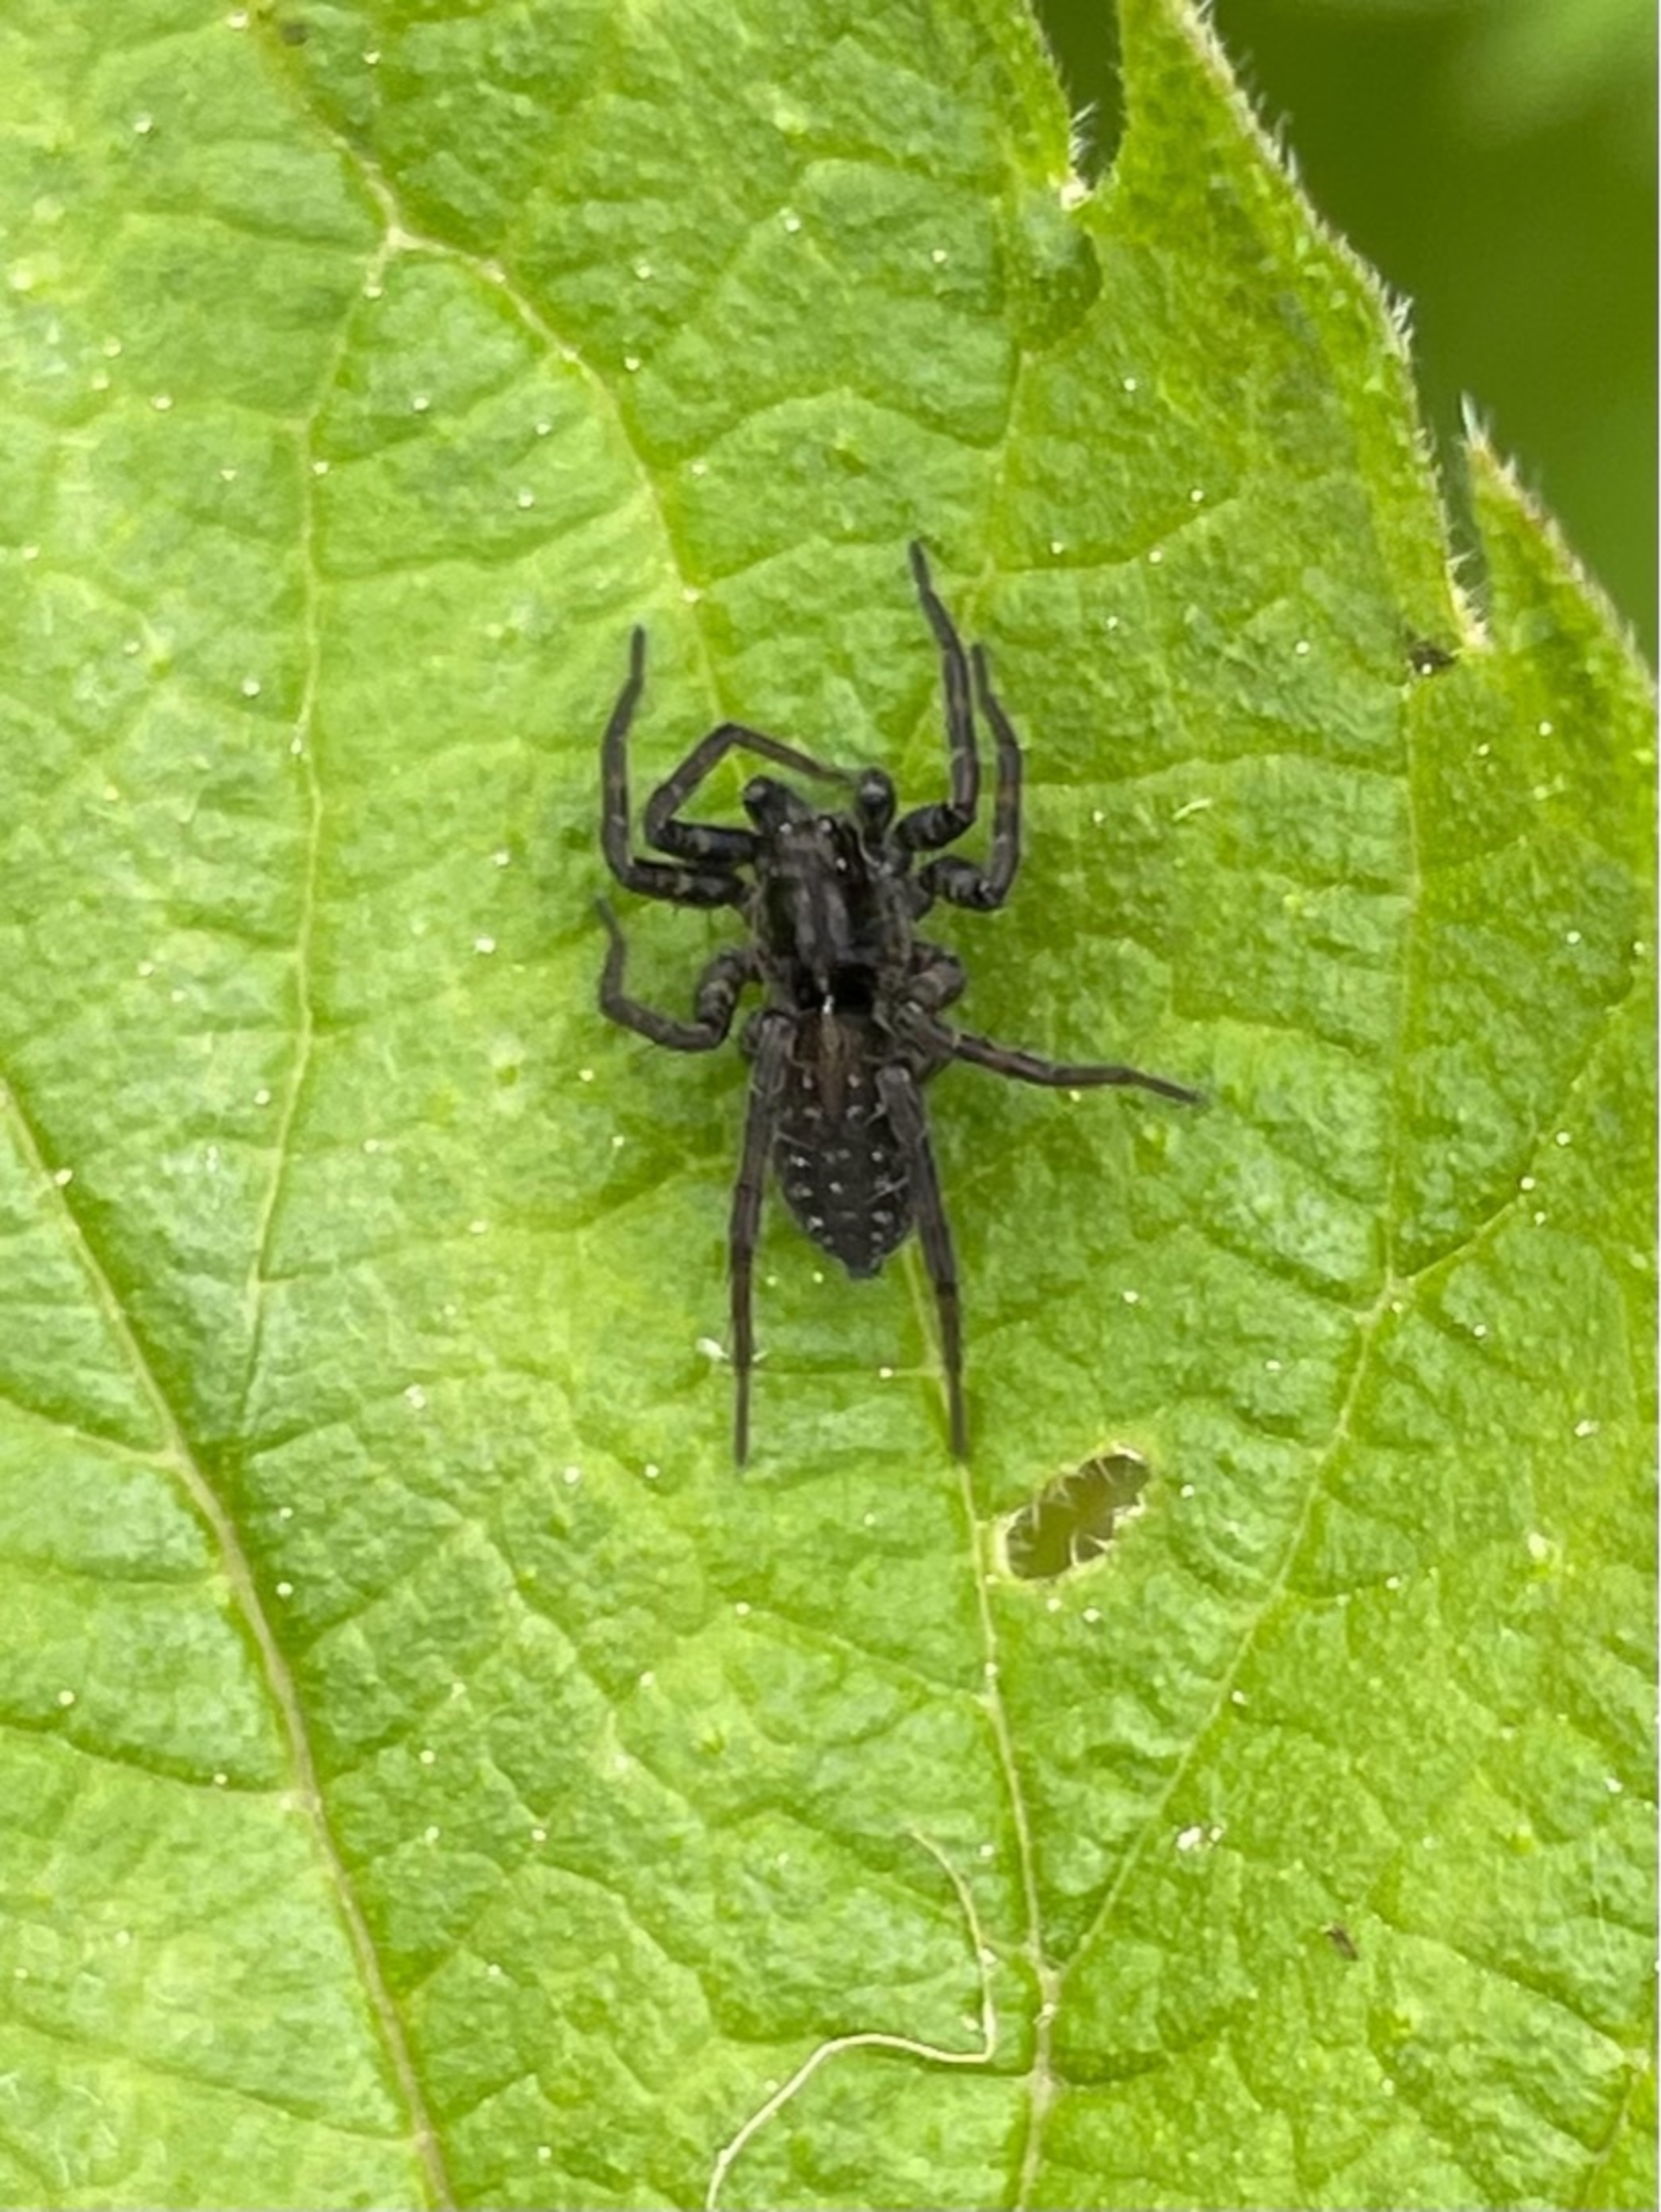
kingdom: Animalia
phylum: Arthropoda
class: Arachnida
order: Araneae
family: Lycosidae
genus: Pardosa
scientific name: Pardosa
